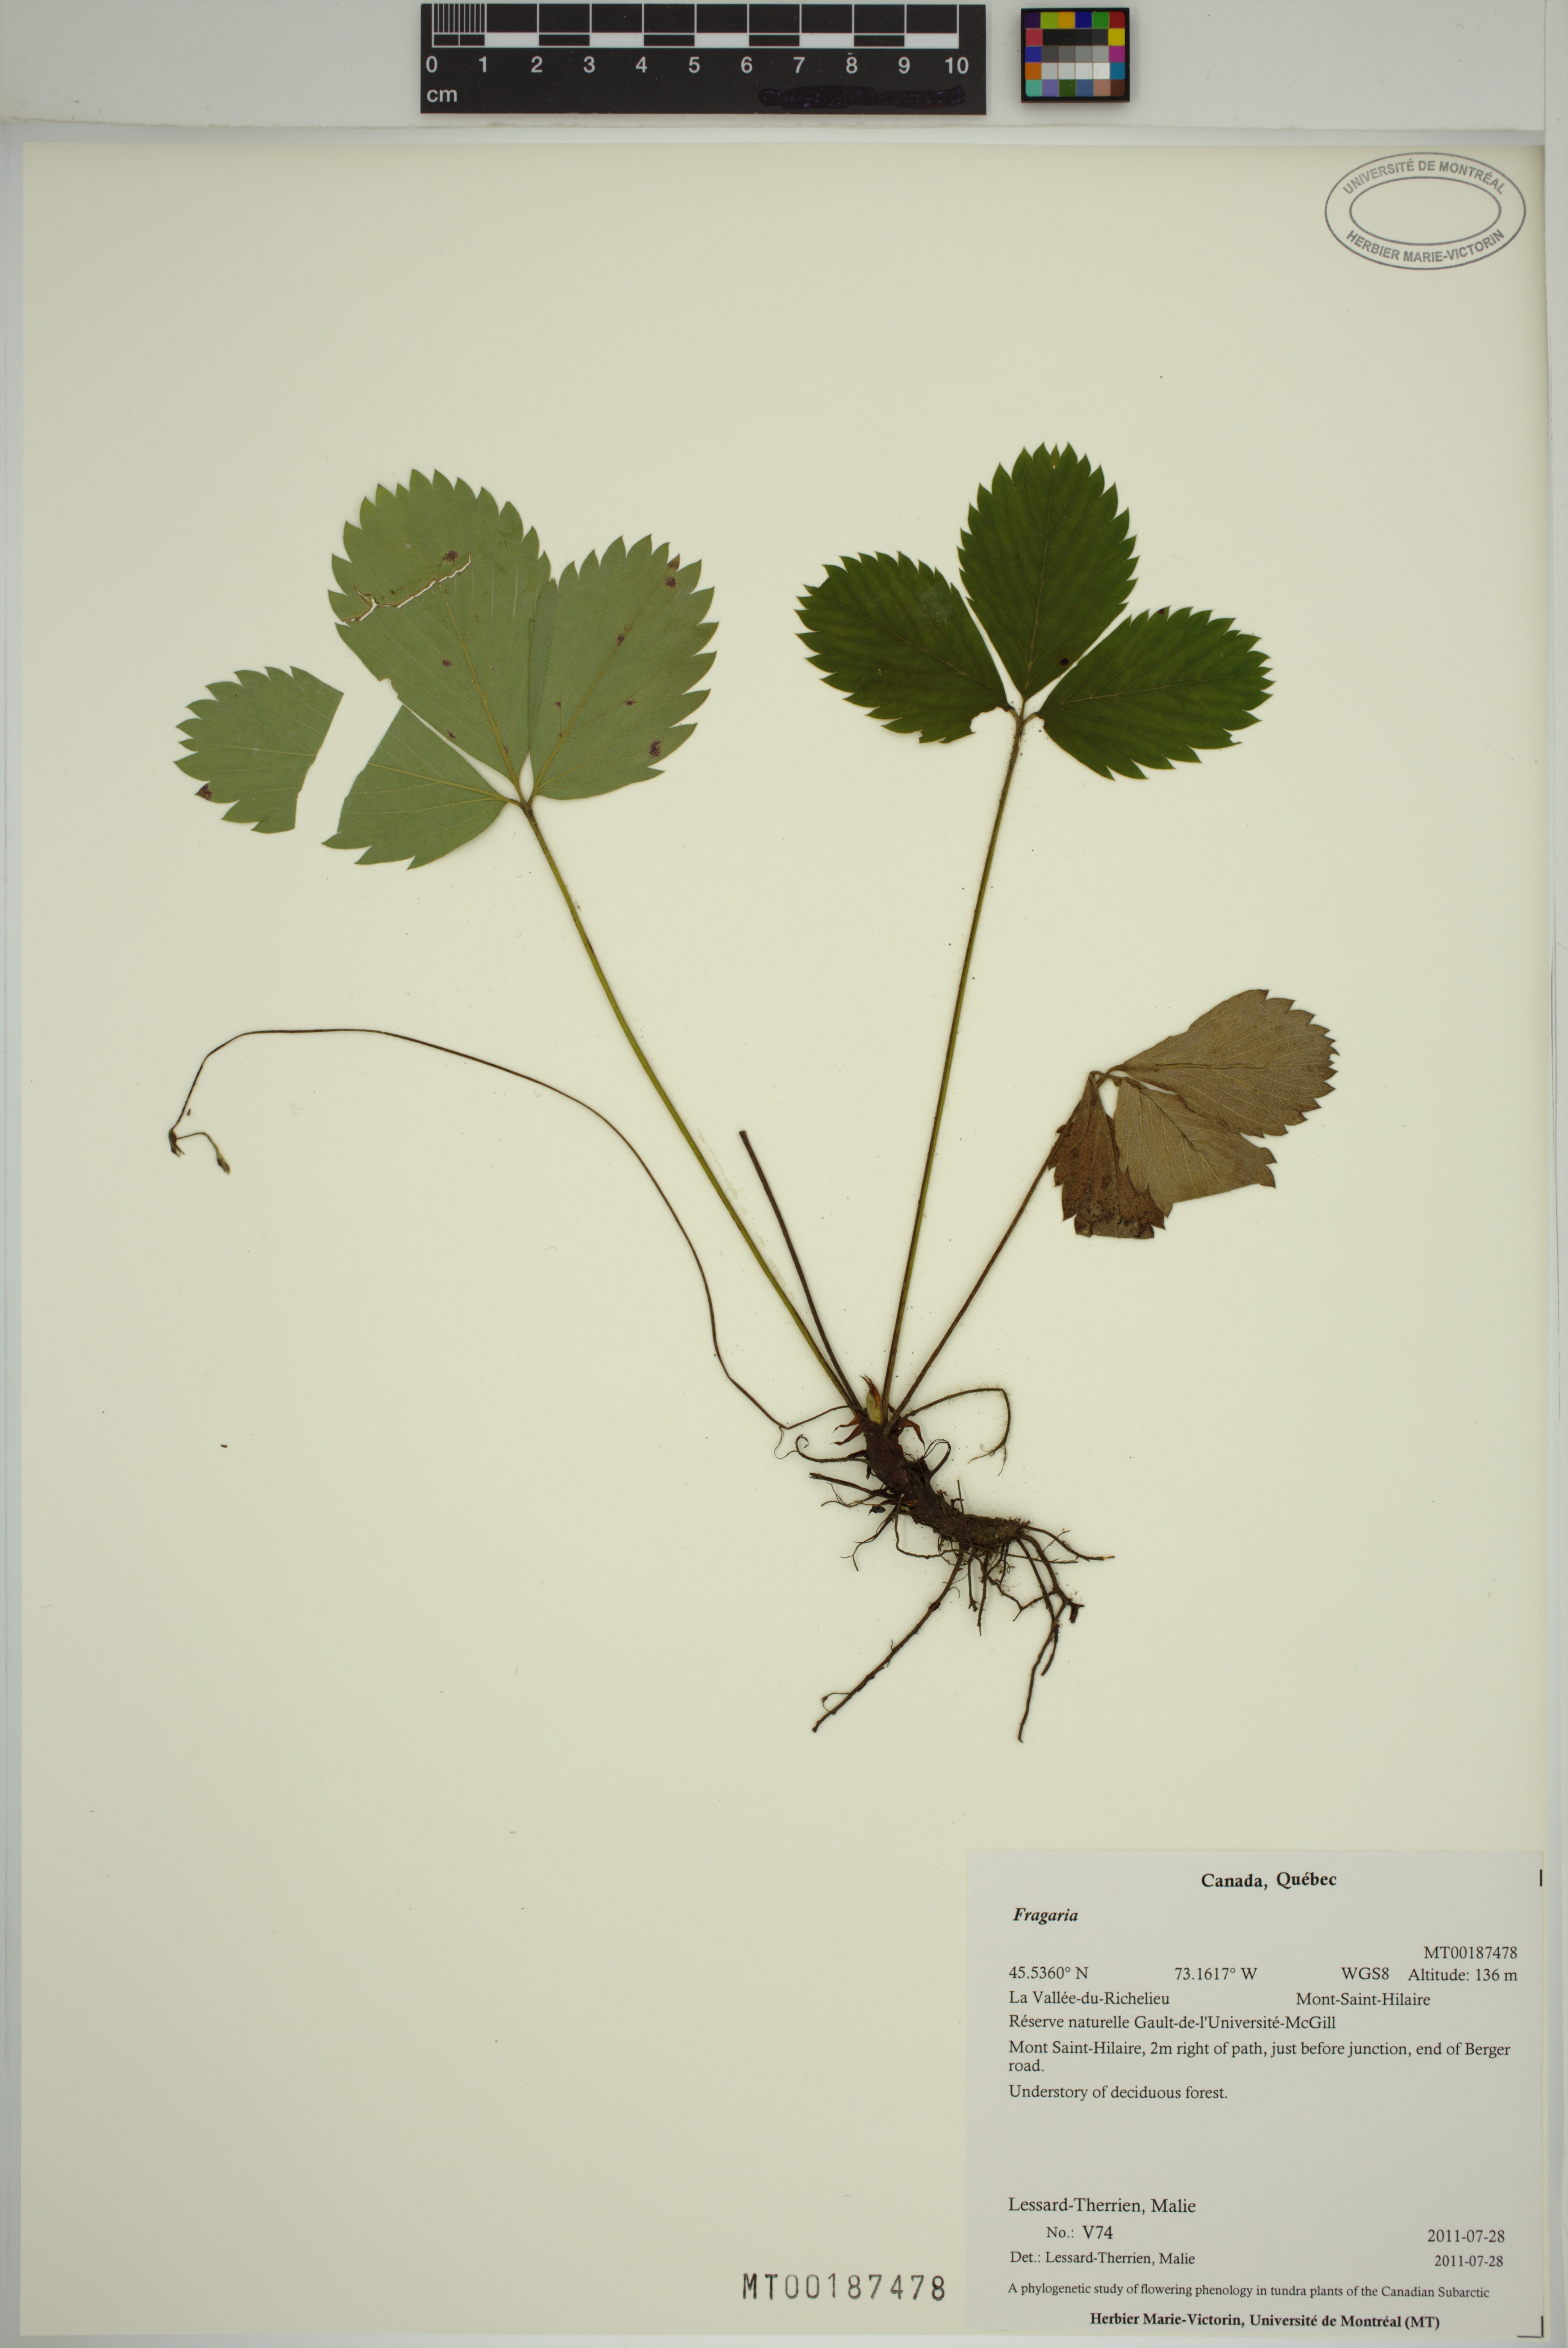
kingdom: Plantae
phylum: Tracheophyta
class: Magnoliopsida
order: Rosales
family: Rosaceae
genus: Fragaria
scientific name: Fragaria
